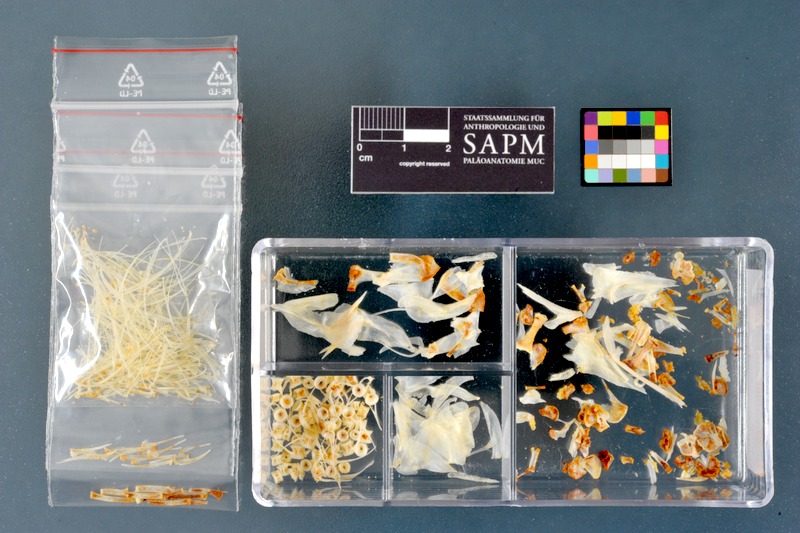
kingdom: Animalia
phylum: Chordata
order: Salmoniformes
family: Salmonidae
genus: Thymallus
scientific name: Thymallus thymallus
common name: Grayling
